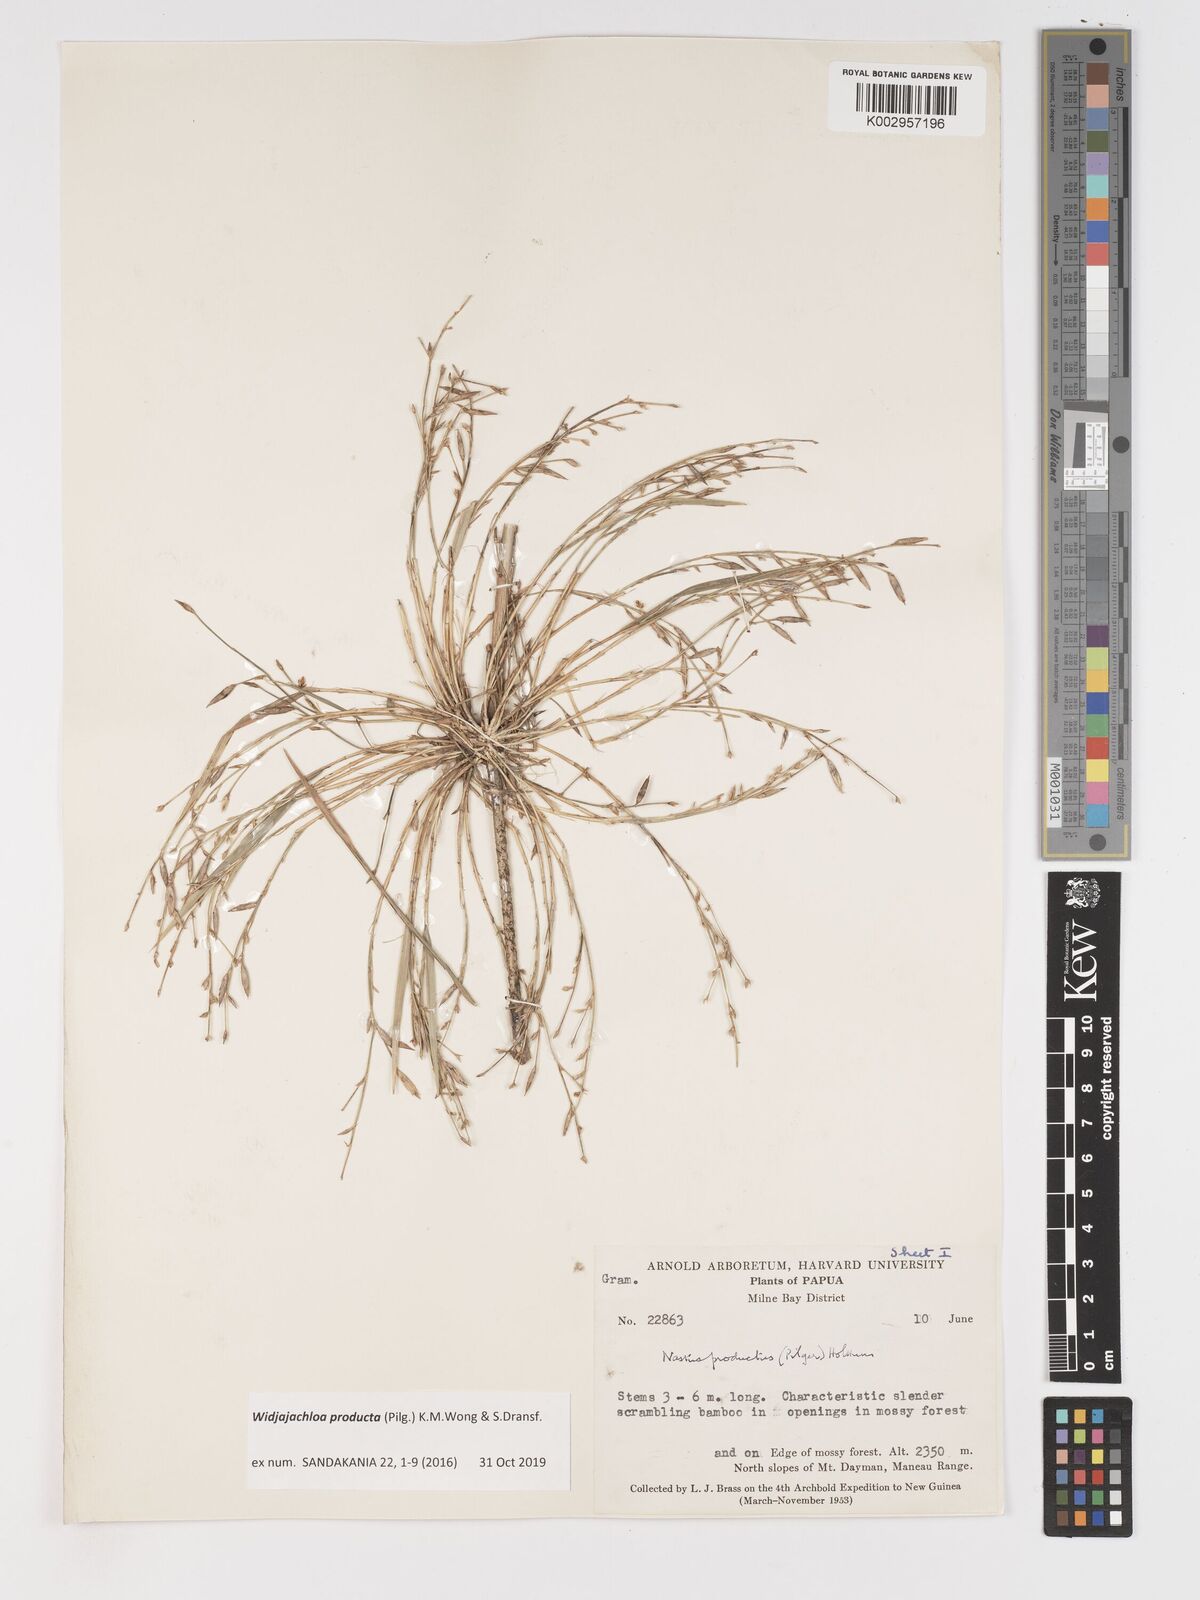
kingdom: Plantae
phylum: Tracheophyta
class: Liliopsida
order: Poales
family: Poaceae
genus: Widjajachloa
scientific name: Widjajachloa producta
